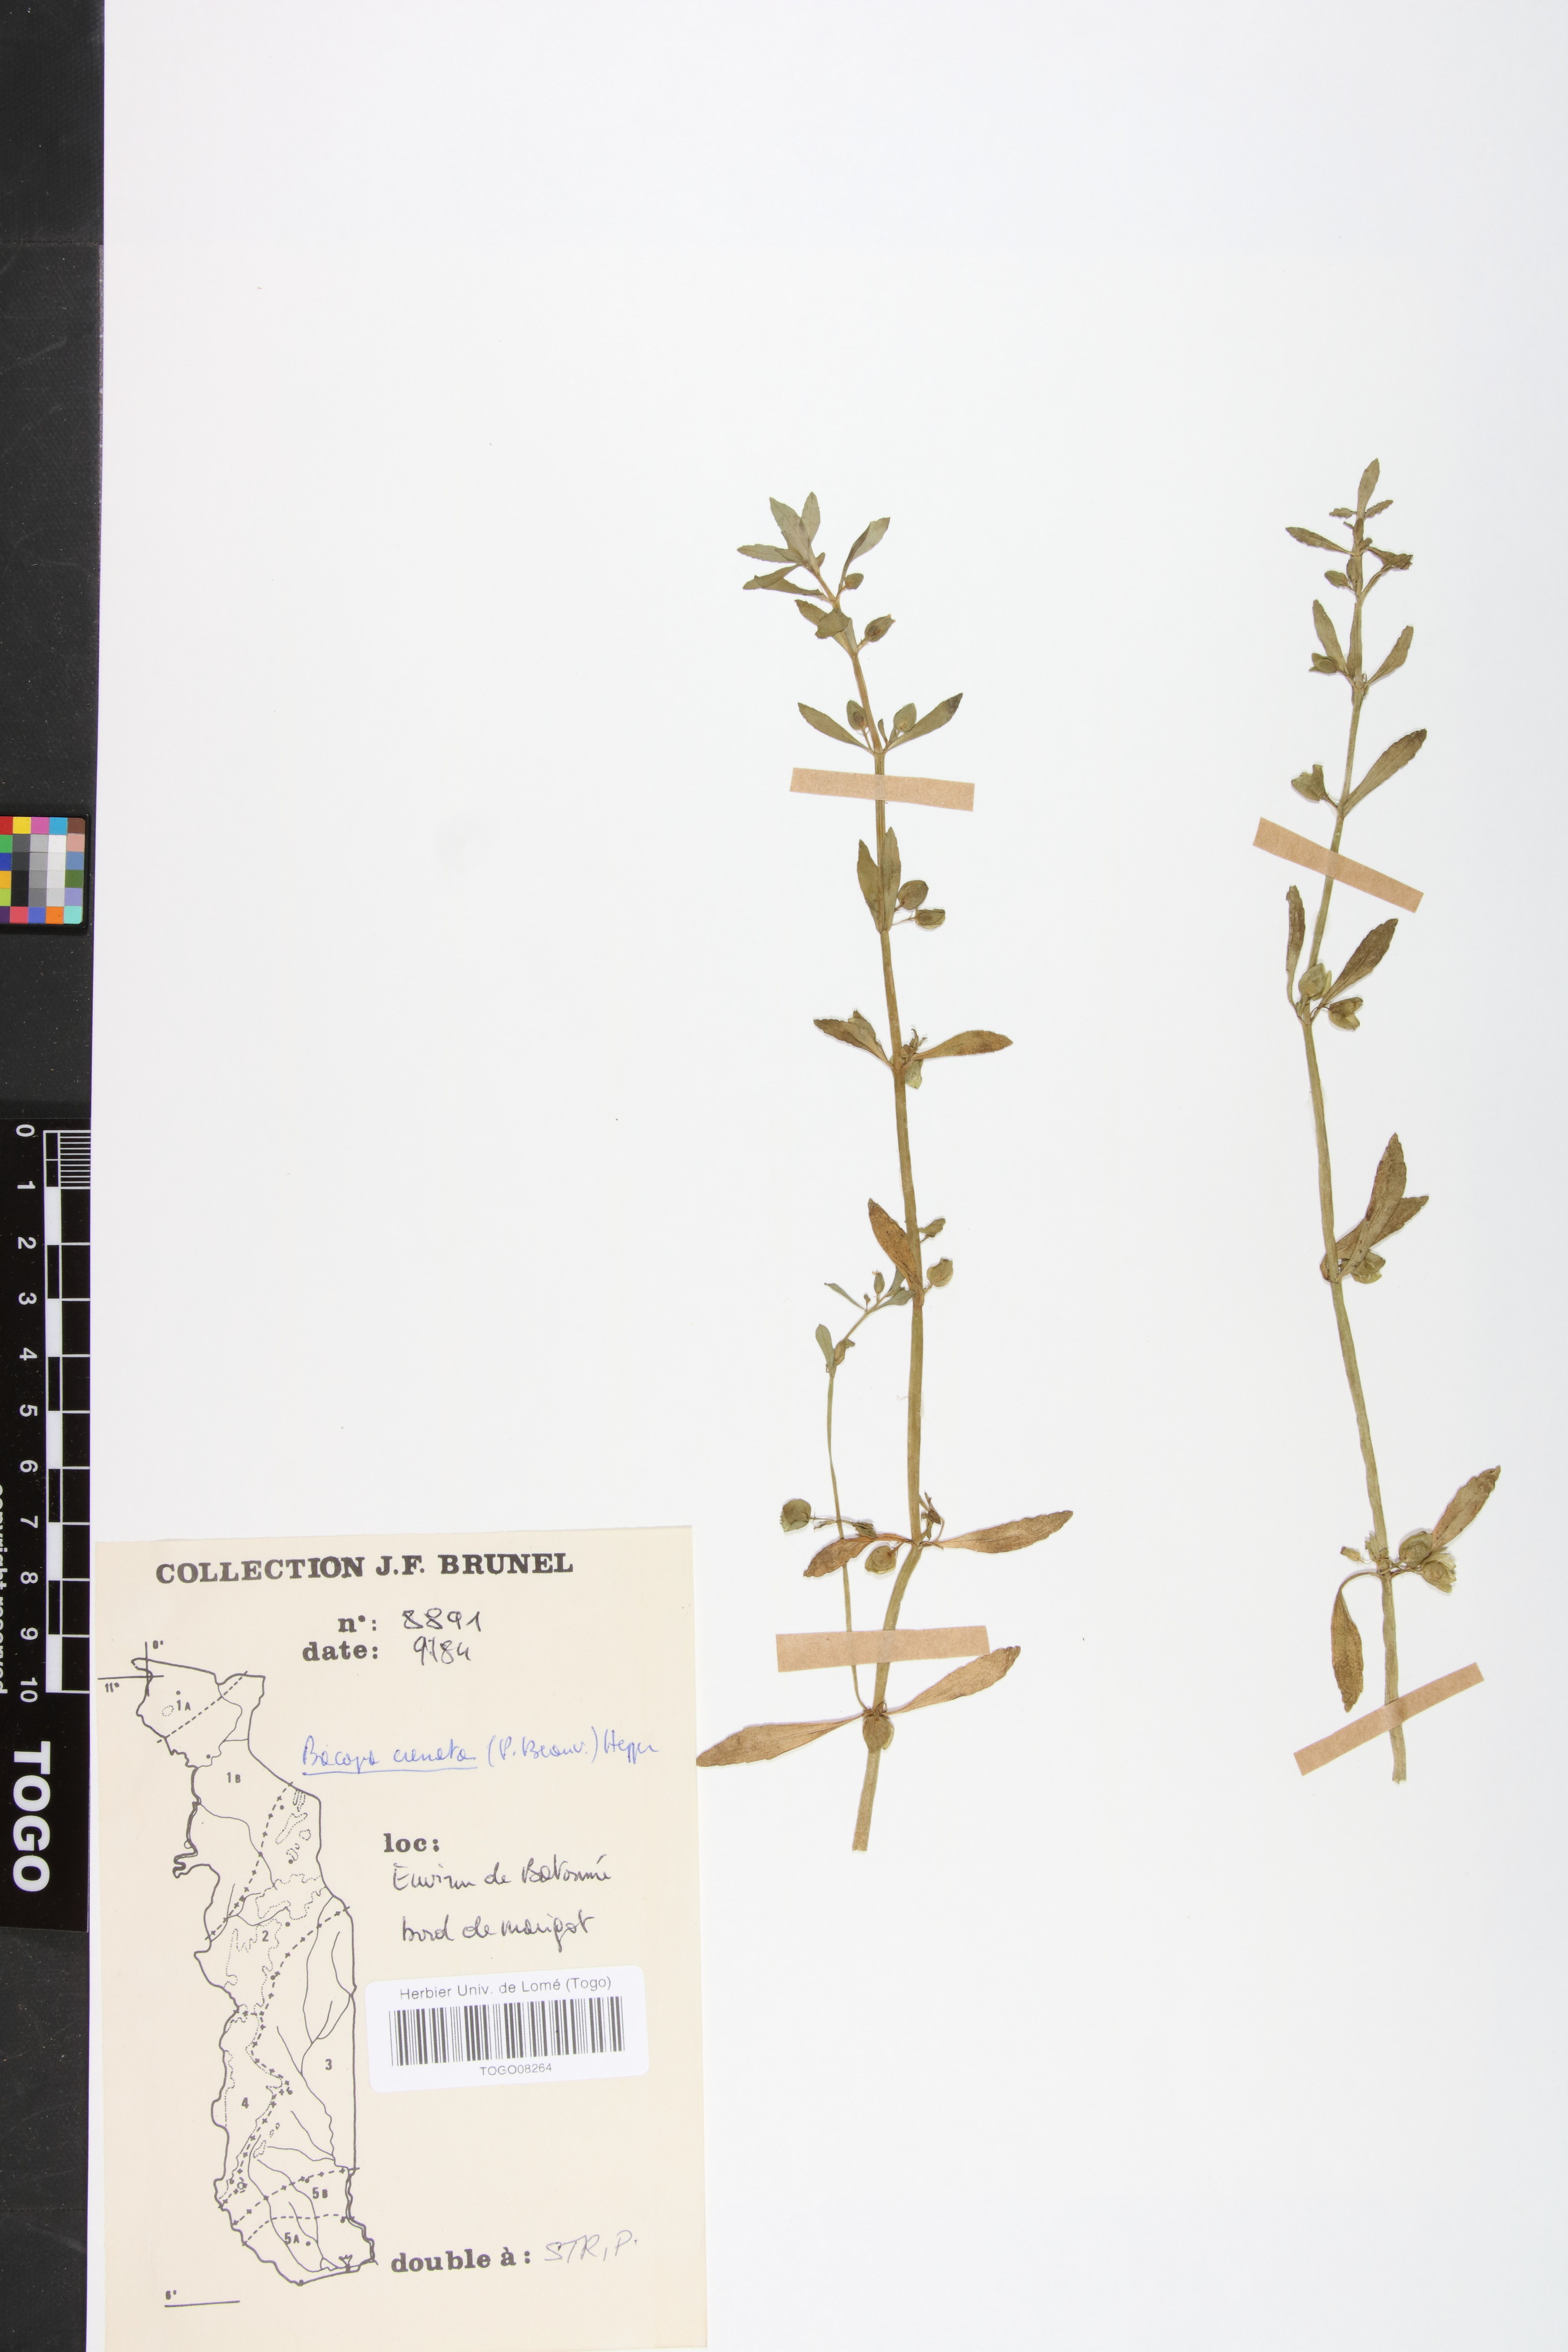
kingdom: Plantae
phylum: Tracheophyta
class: Magnoliopsida
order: Lamiales
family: Plantaginaceae
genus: Bacopa
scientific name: Bacopa crenata
